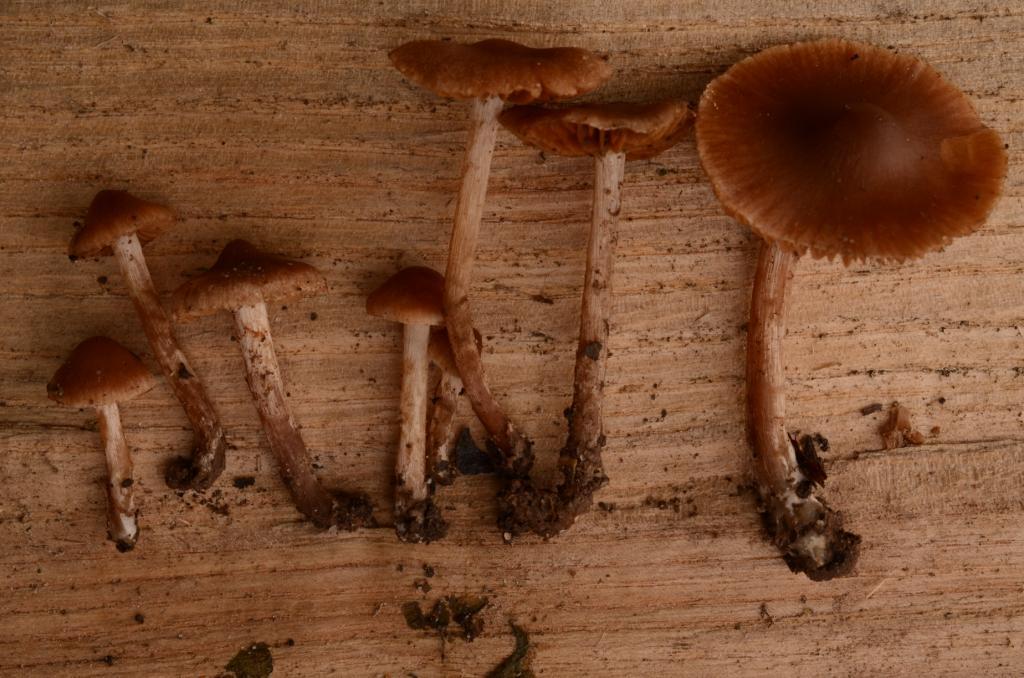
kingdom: Fungi
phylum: Basidiomycota
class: Agaricomycetes
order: Agaricales
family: Cortinariaceae
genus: Cortinarius
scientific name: Cortinarius
